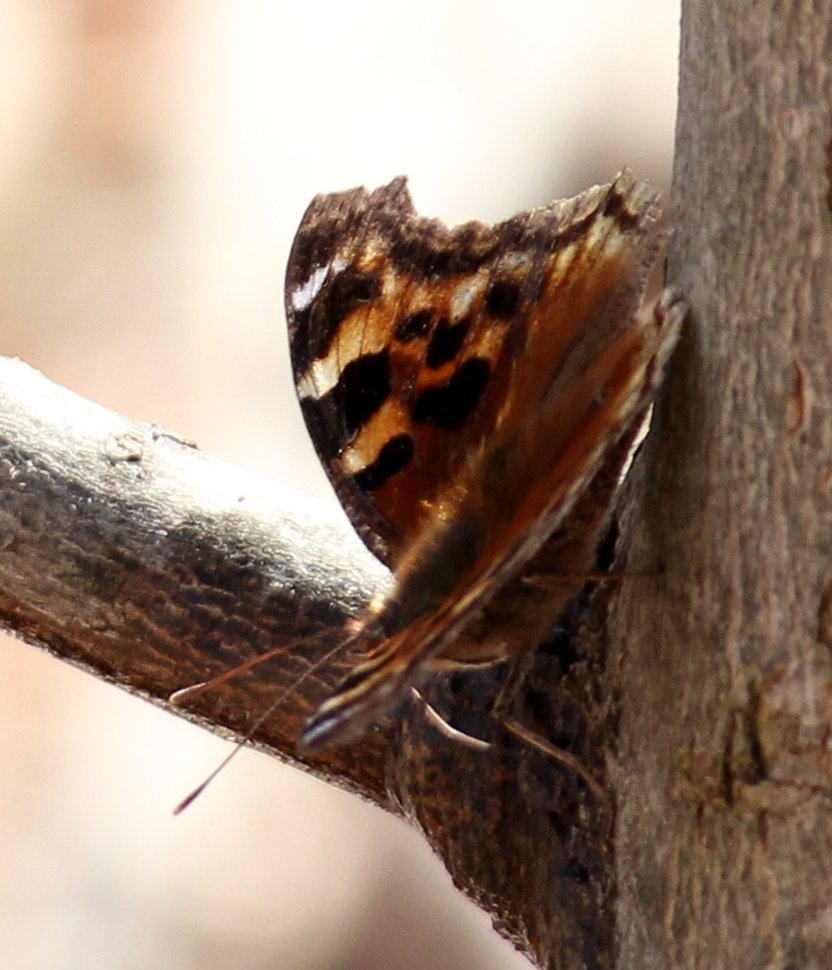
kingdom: Animalia
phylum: Arthropoda
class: Insecta
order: Lepidoptera
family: Nymphalidae
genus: Polygonia
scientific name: Polygonia vaualbum
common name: Compton Tortoiseshell
